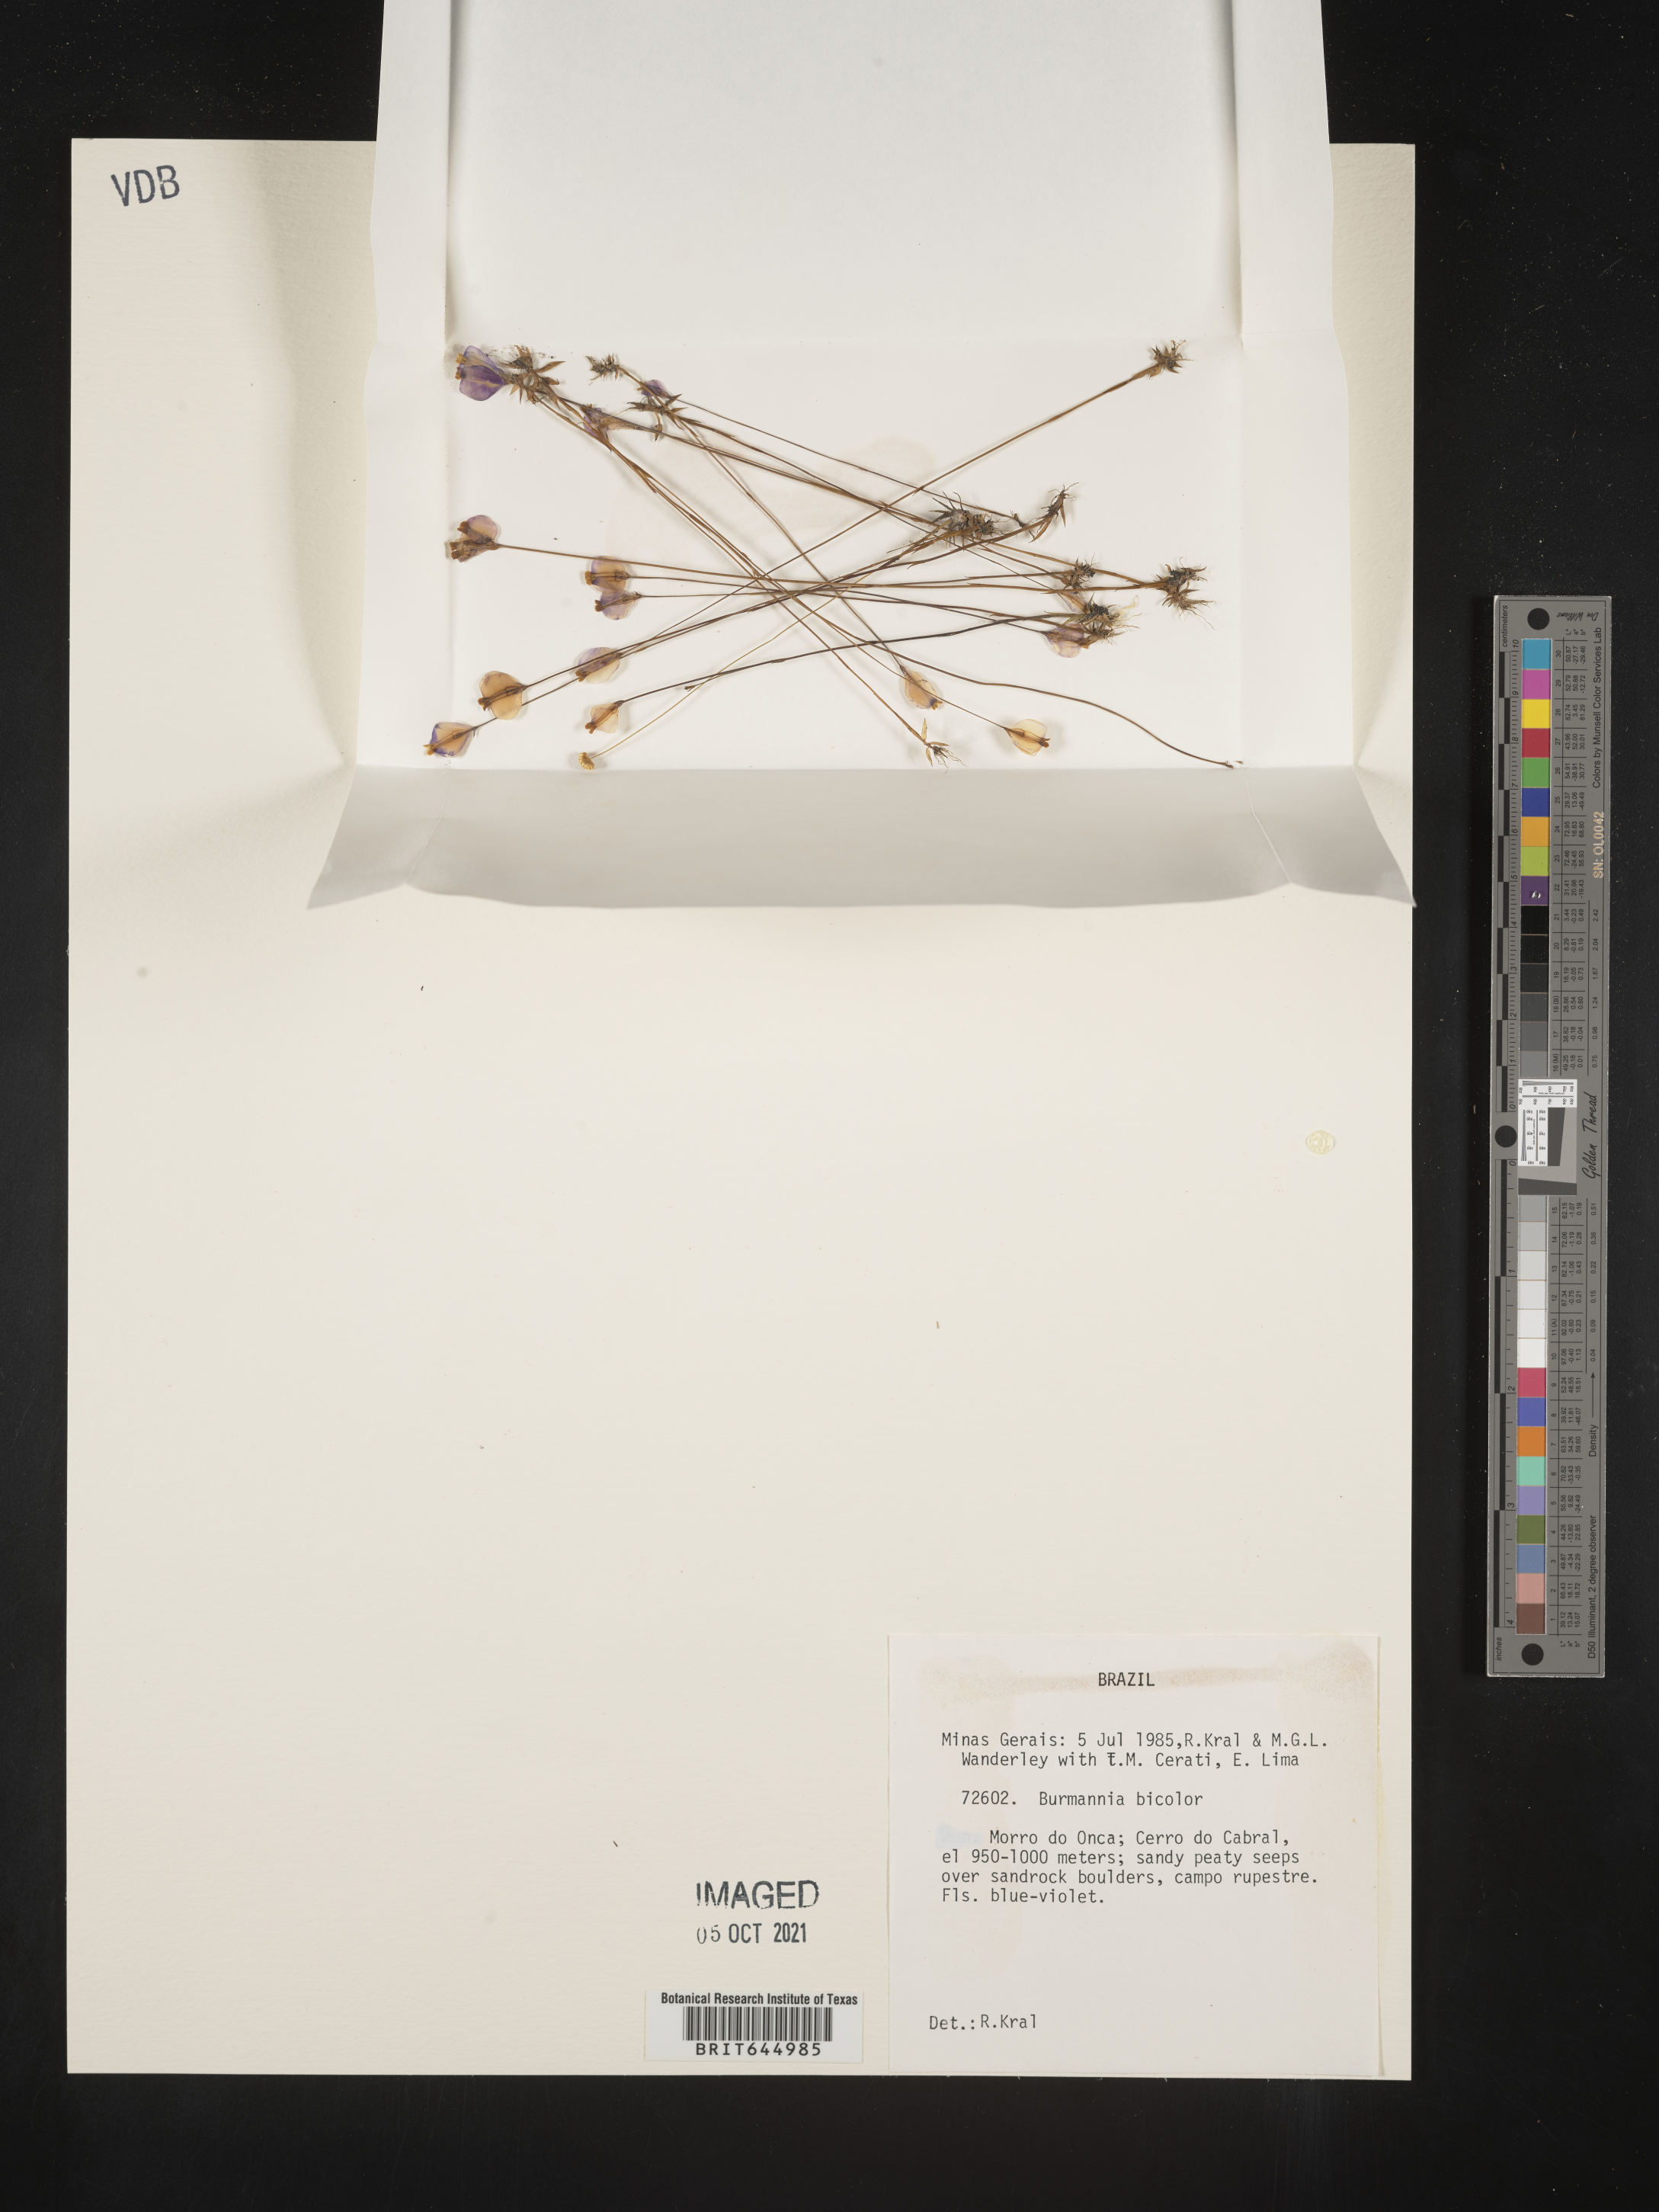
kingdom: Plantae
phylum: Tracheophyta
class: Liliopsida
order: Dioscoreales
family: Burmanniaceae
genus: Burmannia
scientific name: Burmannia bicolor
